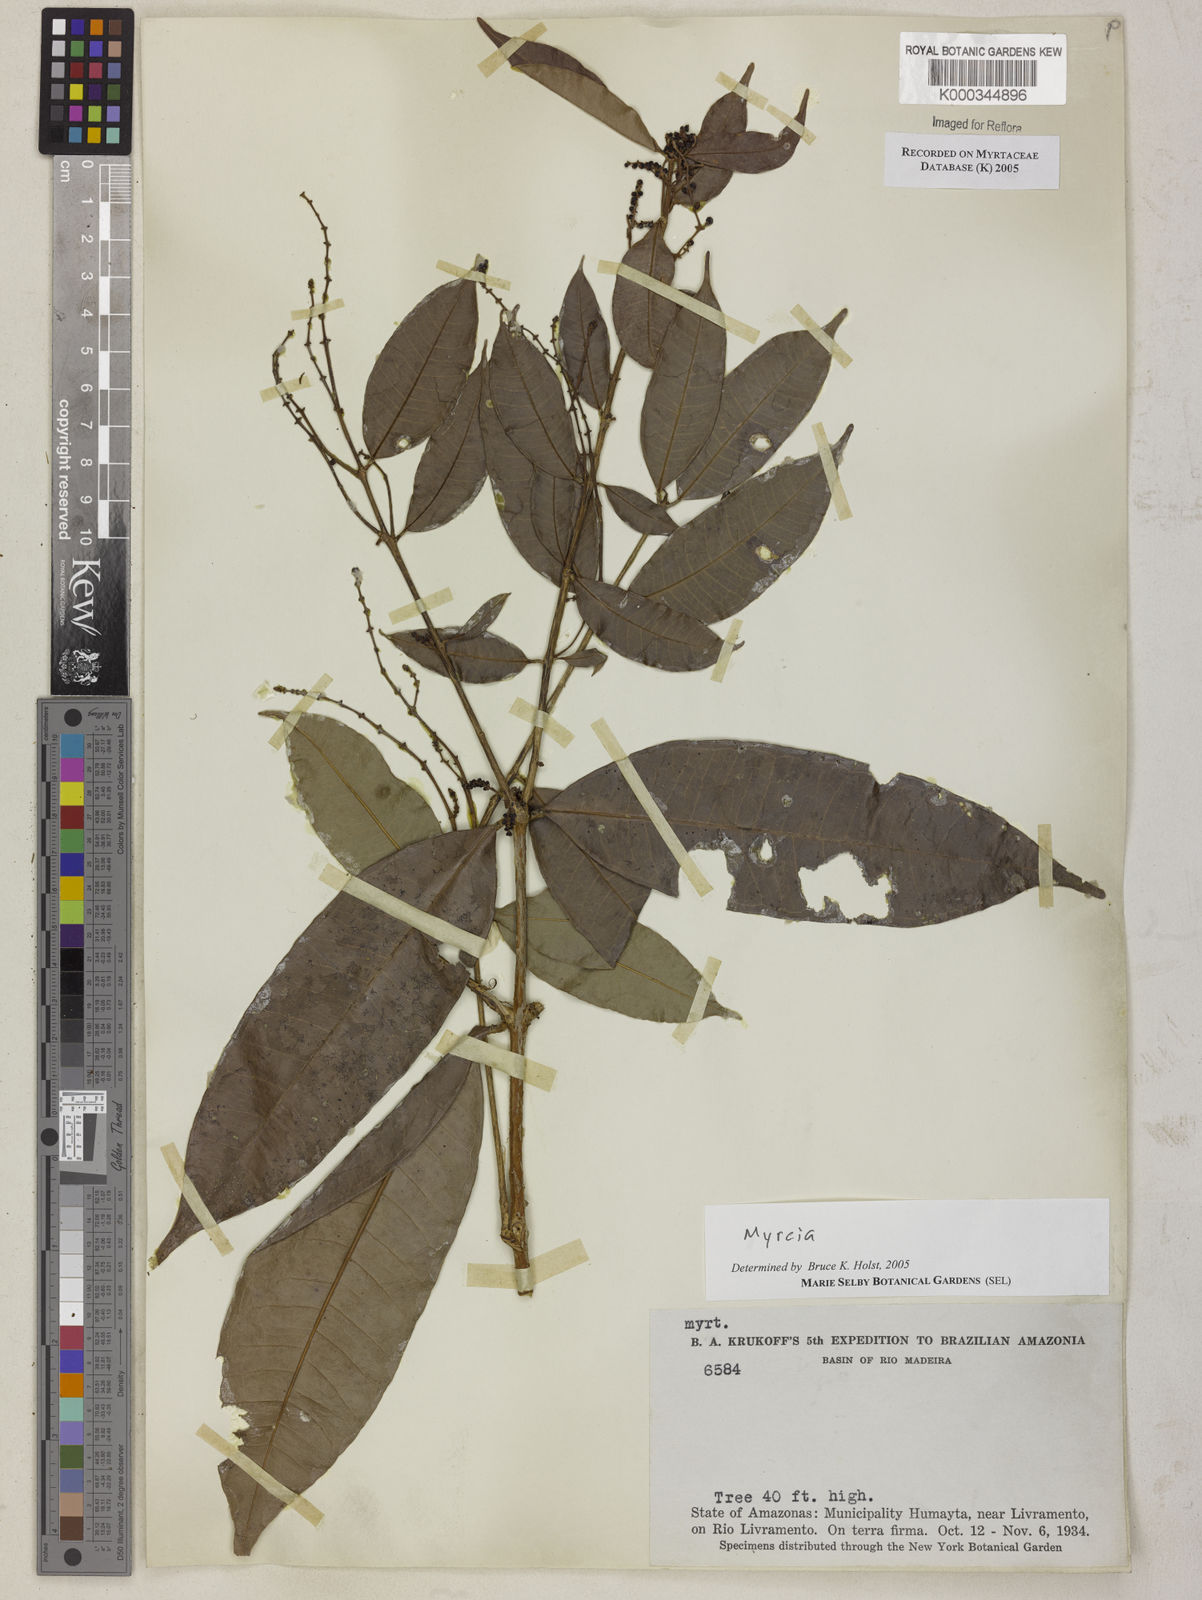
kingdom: Plantae
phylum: Tracheophyta
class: Magnoliopsida
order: Myrtales
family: Myrtaceae
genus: Myrcia
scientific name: Myrcia
